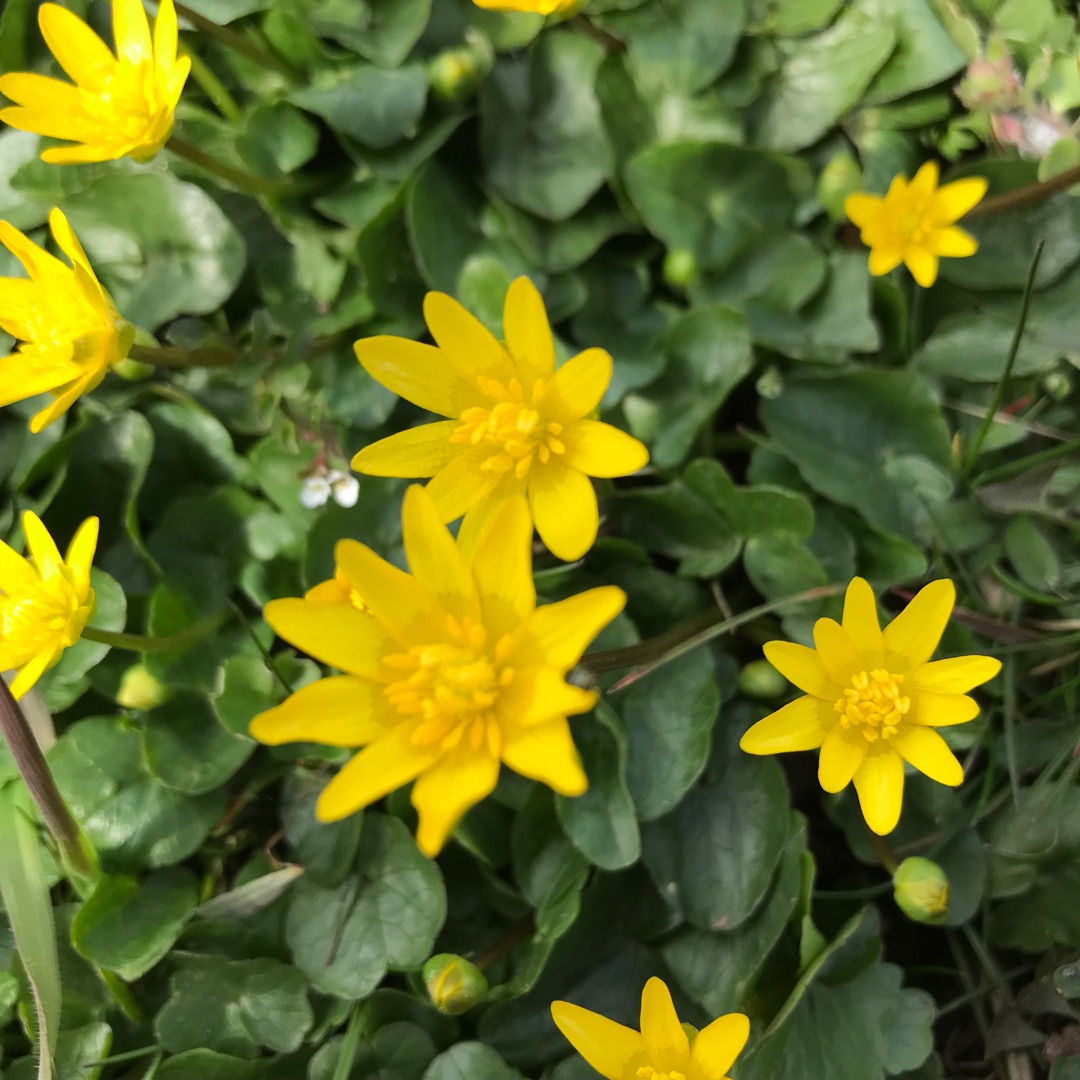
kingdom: Plantae
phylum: Tracheophyta
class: Magnoliopsida
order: Ranunculales
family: Ranunculaceae
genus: Ficaria
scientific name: Ficaria verna
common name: Vorterod
